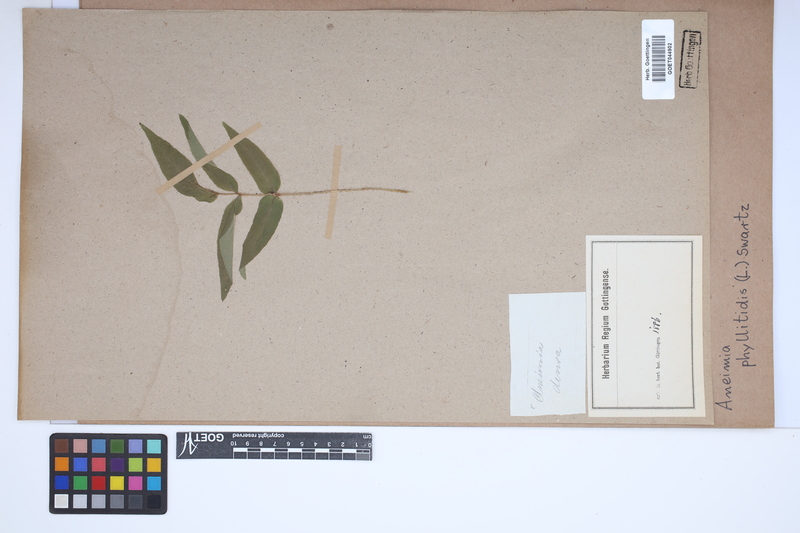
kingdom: Plantae
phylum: Tracheophyta
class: Polypodiopsida
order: Schizaeales
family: Anemiaceae
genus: Anemia
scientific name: Anemia phyllitidis
